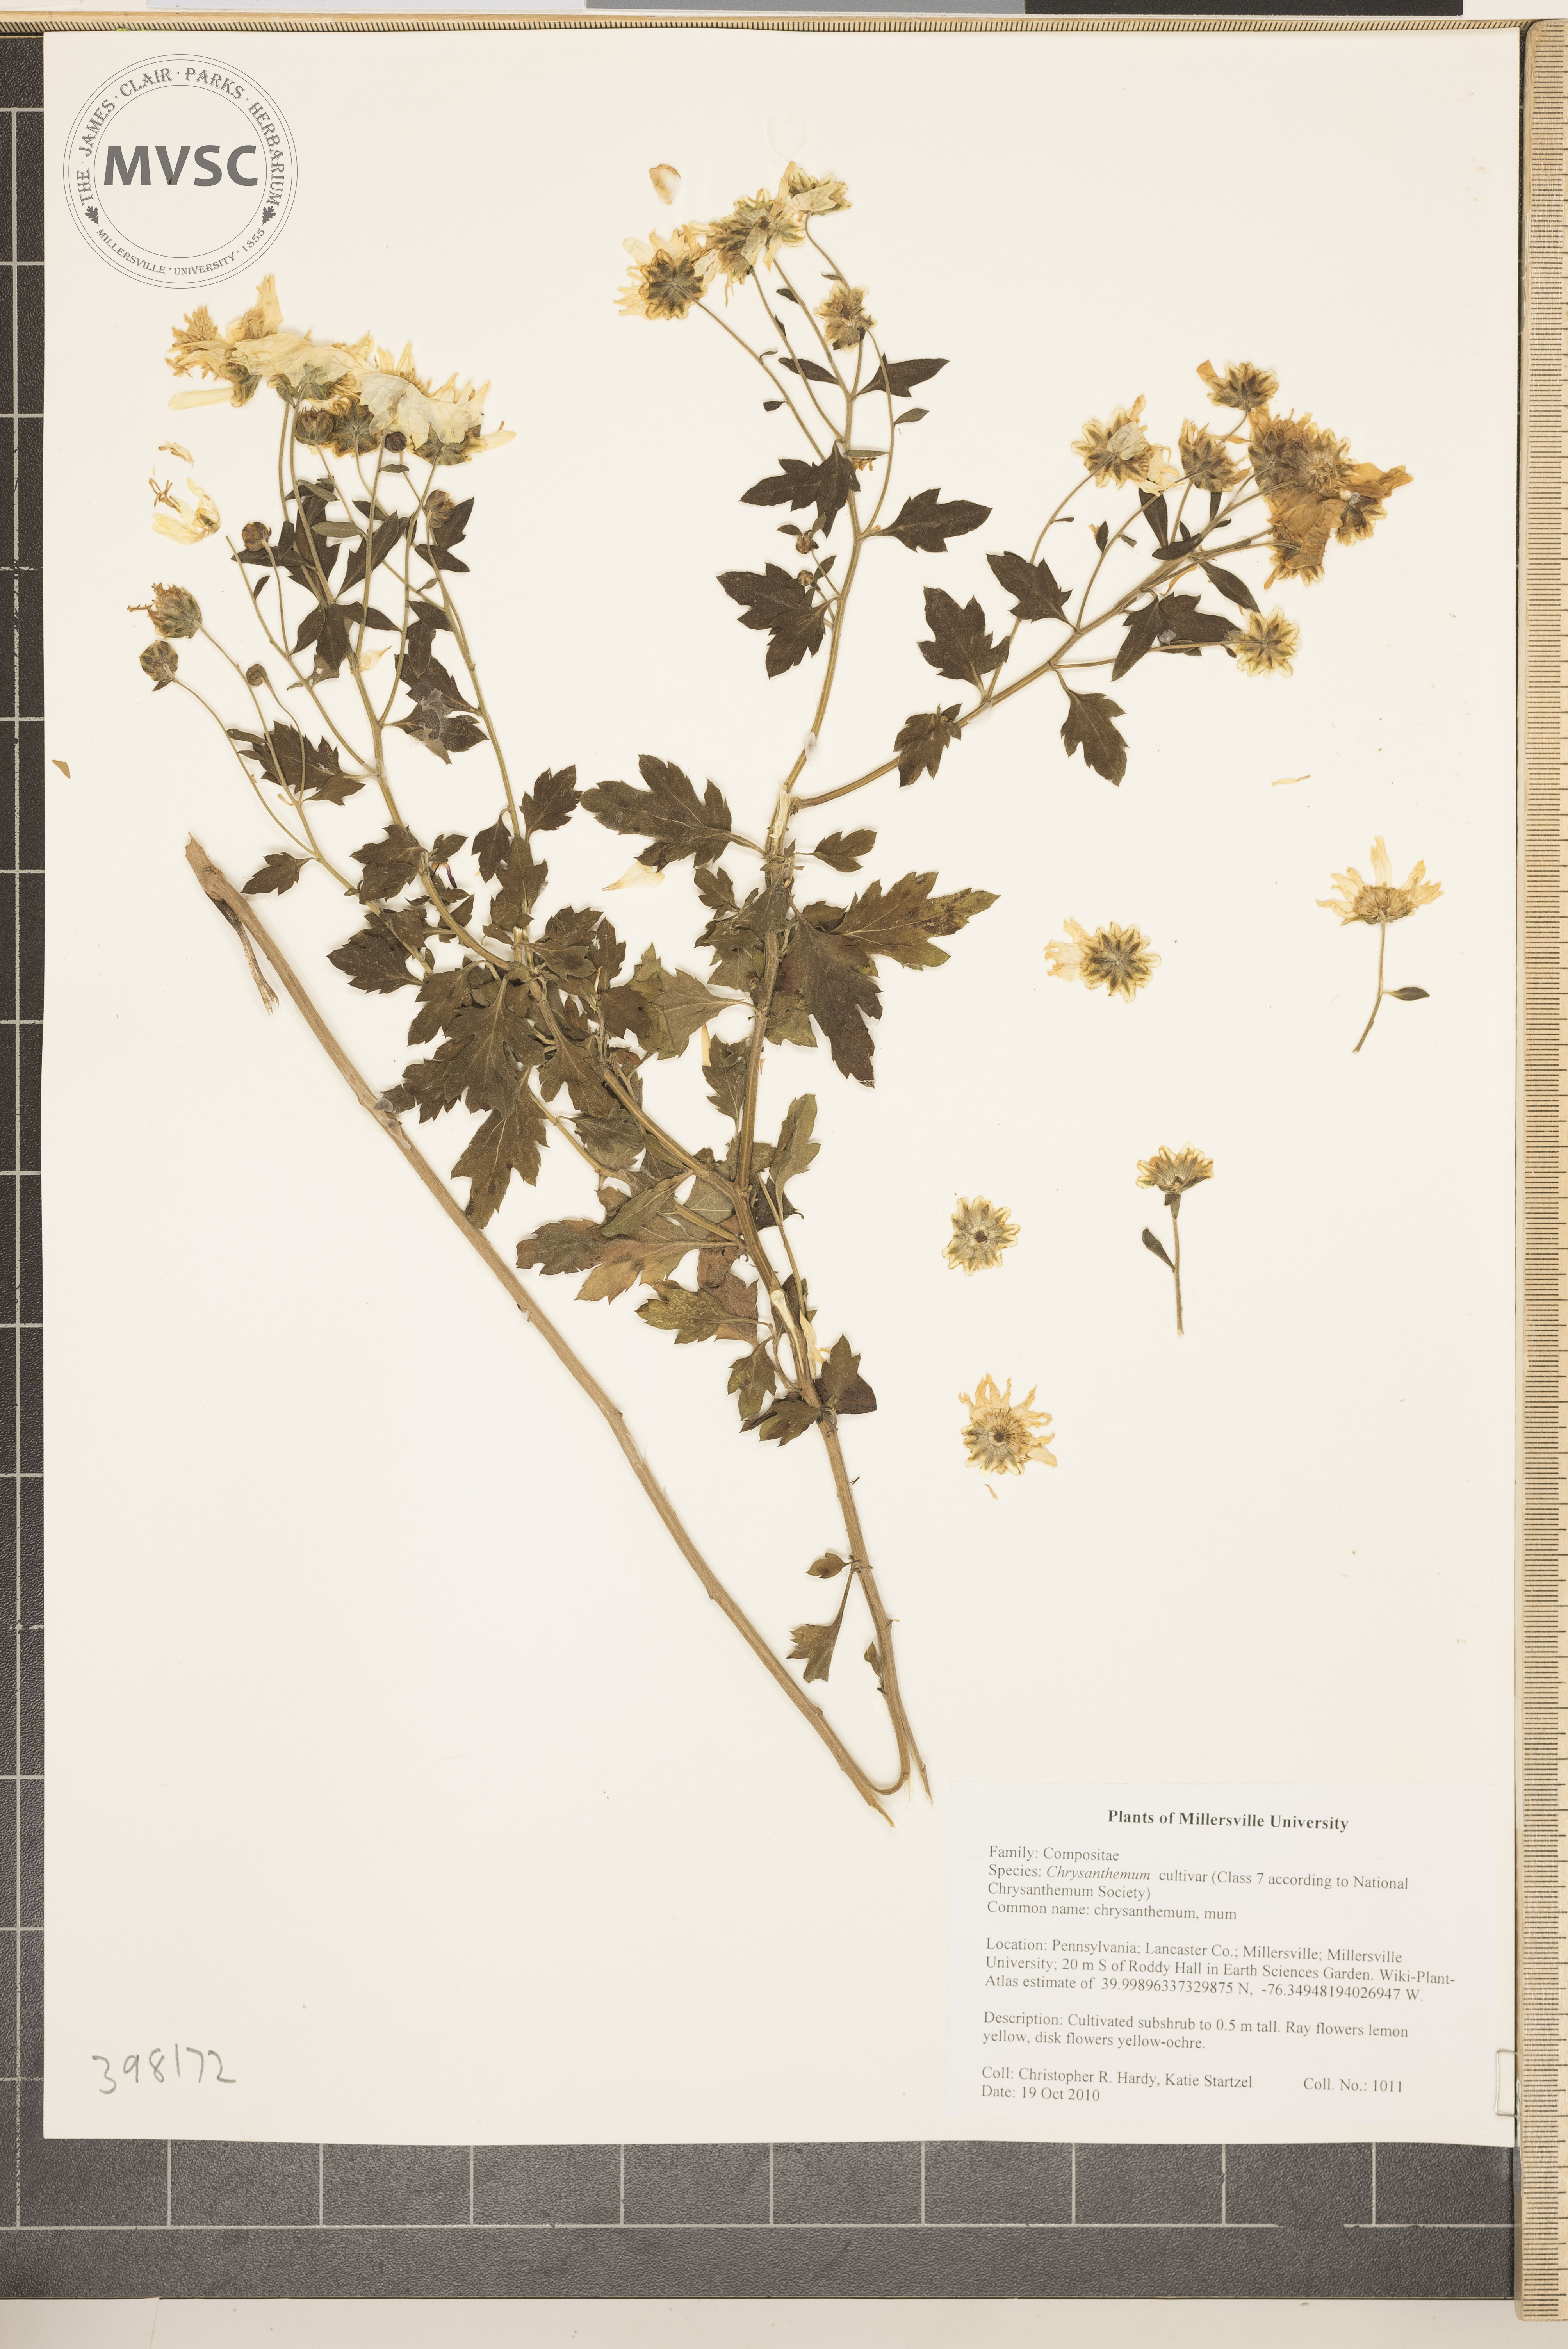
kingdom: Plantae
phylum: Tracheophyta
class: Magnoliopsida
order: Asterales
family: Asteraceae
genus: Chrysanthemum
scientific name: Chrysanthemum
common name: mum
